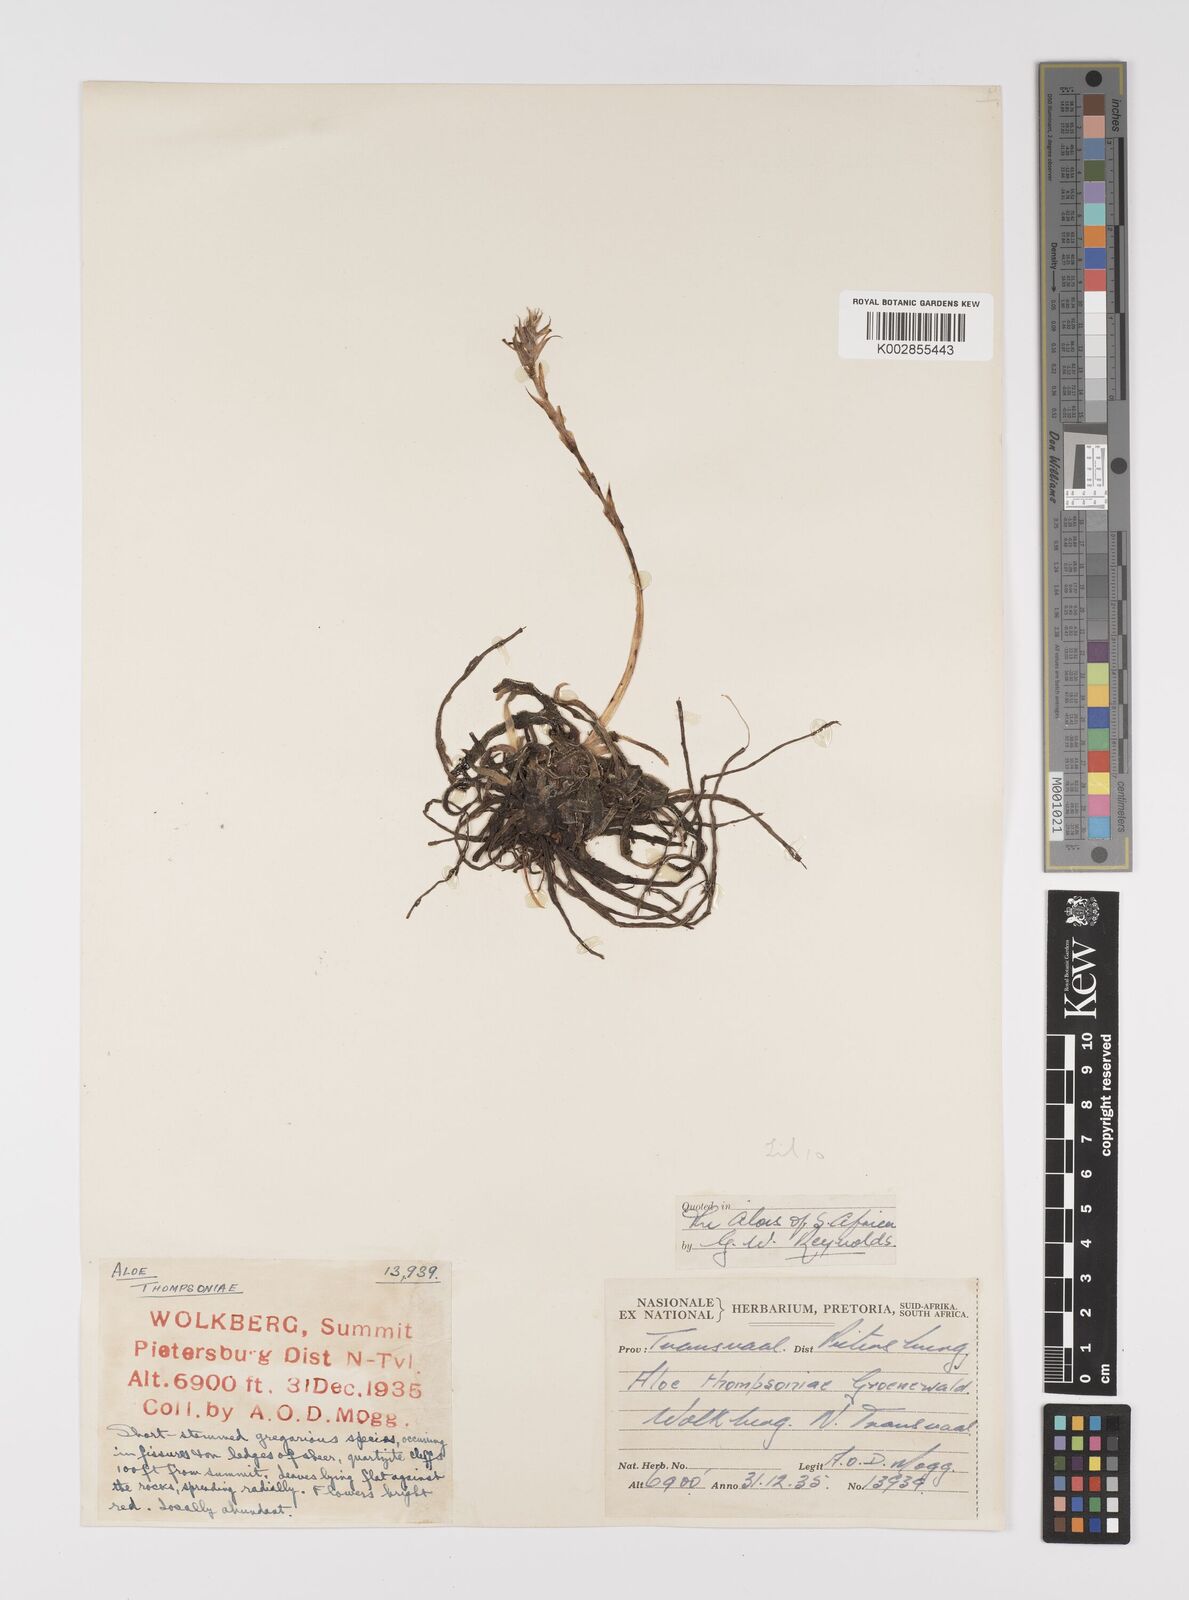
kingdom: Plantae
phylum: Tracheophyta
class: Liliopsida
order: Asparagales
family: Asphodelaceae
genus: Aloe
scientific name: Aloe thompsoniae
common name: Thompson's aloe
